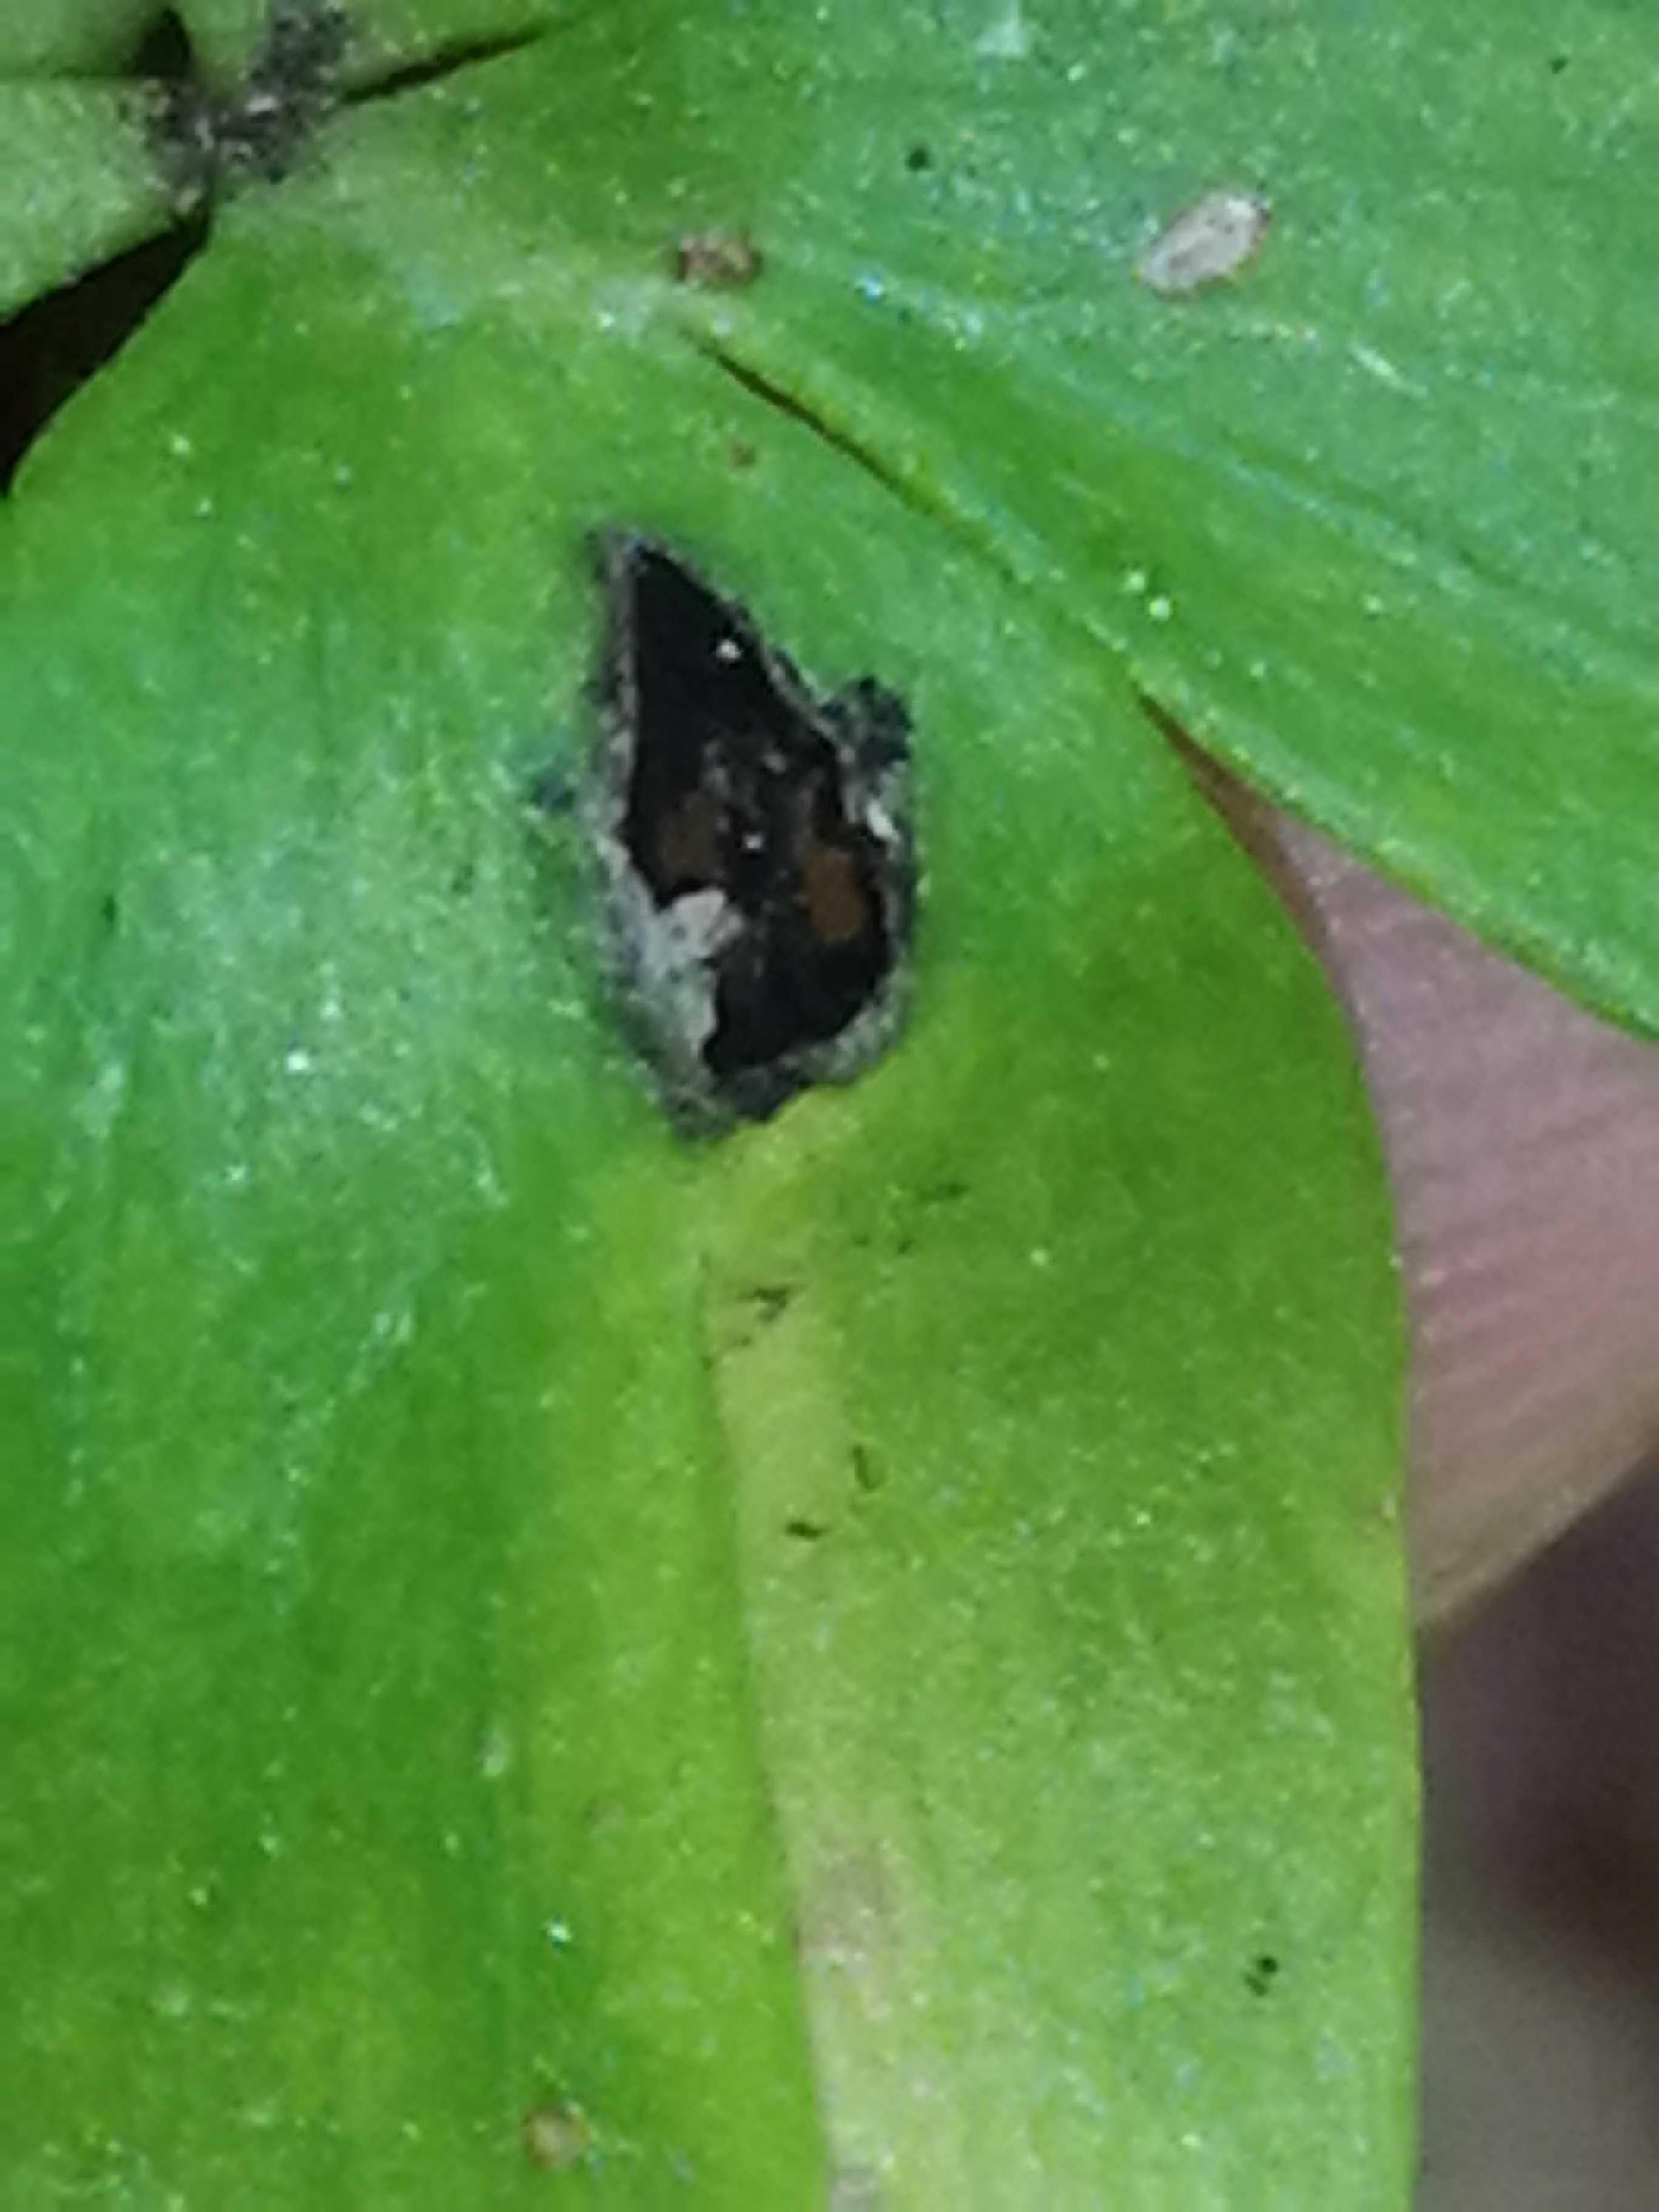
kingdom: Fungi
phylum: Basidiomycota
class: Ustilaginomycetes
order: Urocystidales
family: Urocystidaceae
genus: Urocystis
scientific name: Urocystis eranthidis
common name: erantis-brand
